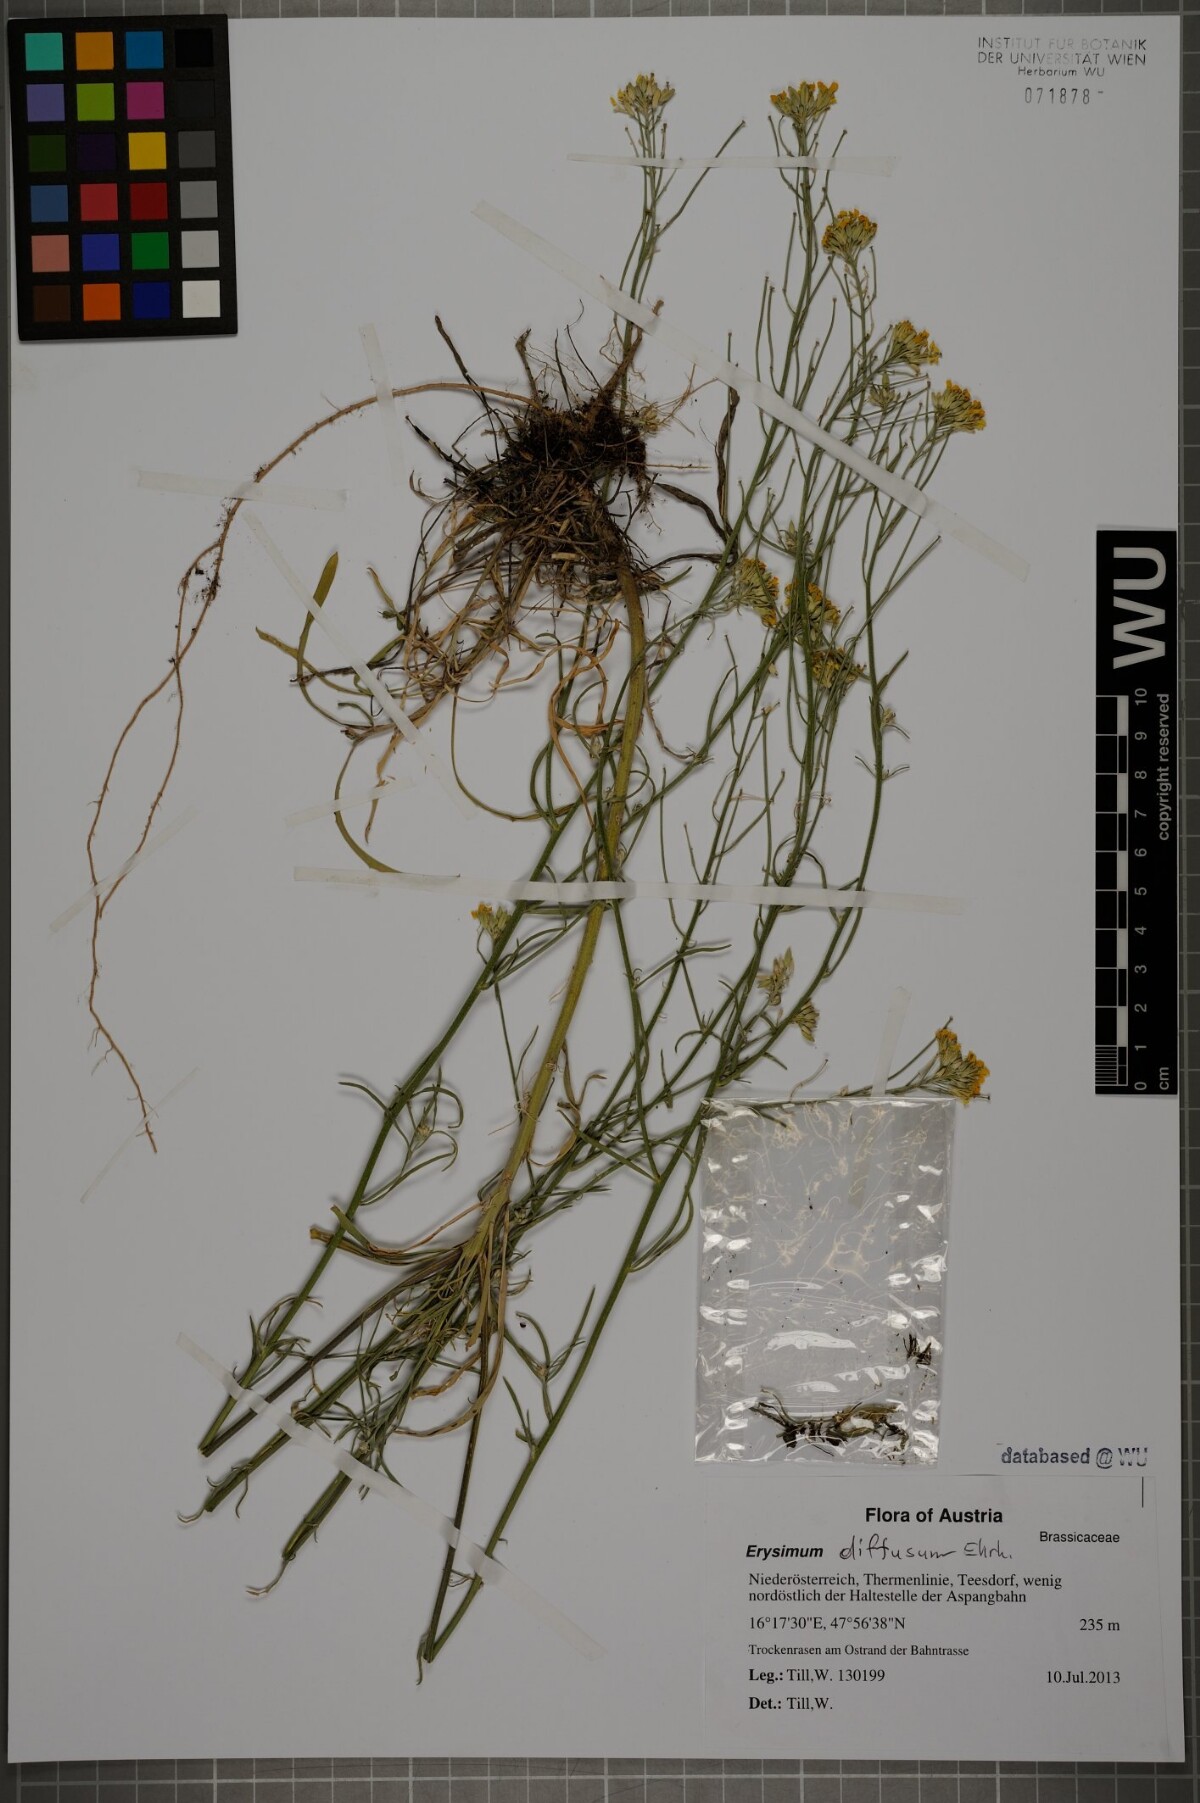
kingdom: Plantae
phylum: Tracheophyta
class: Magnoliopsida
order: Brassicales
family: Brassicaceae
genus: Erysimum
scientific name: Erysimum diffusum
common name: Diffuse wallflower
